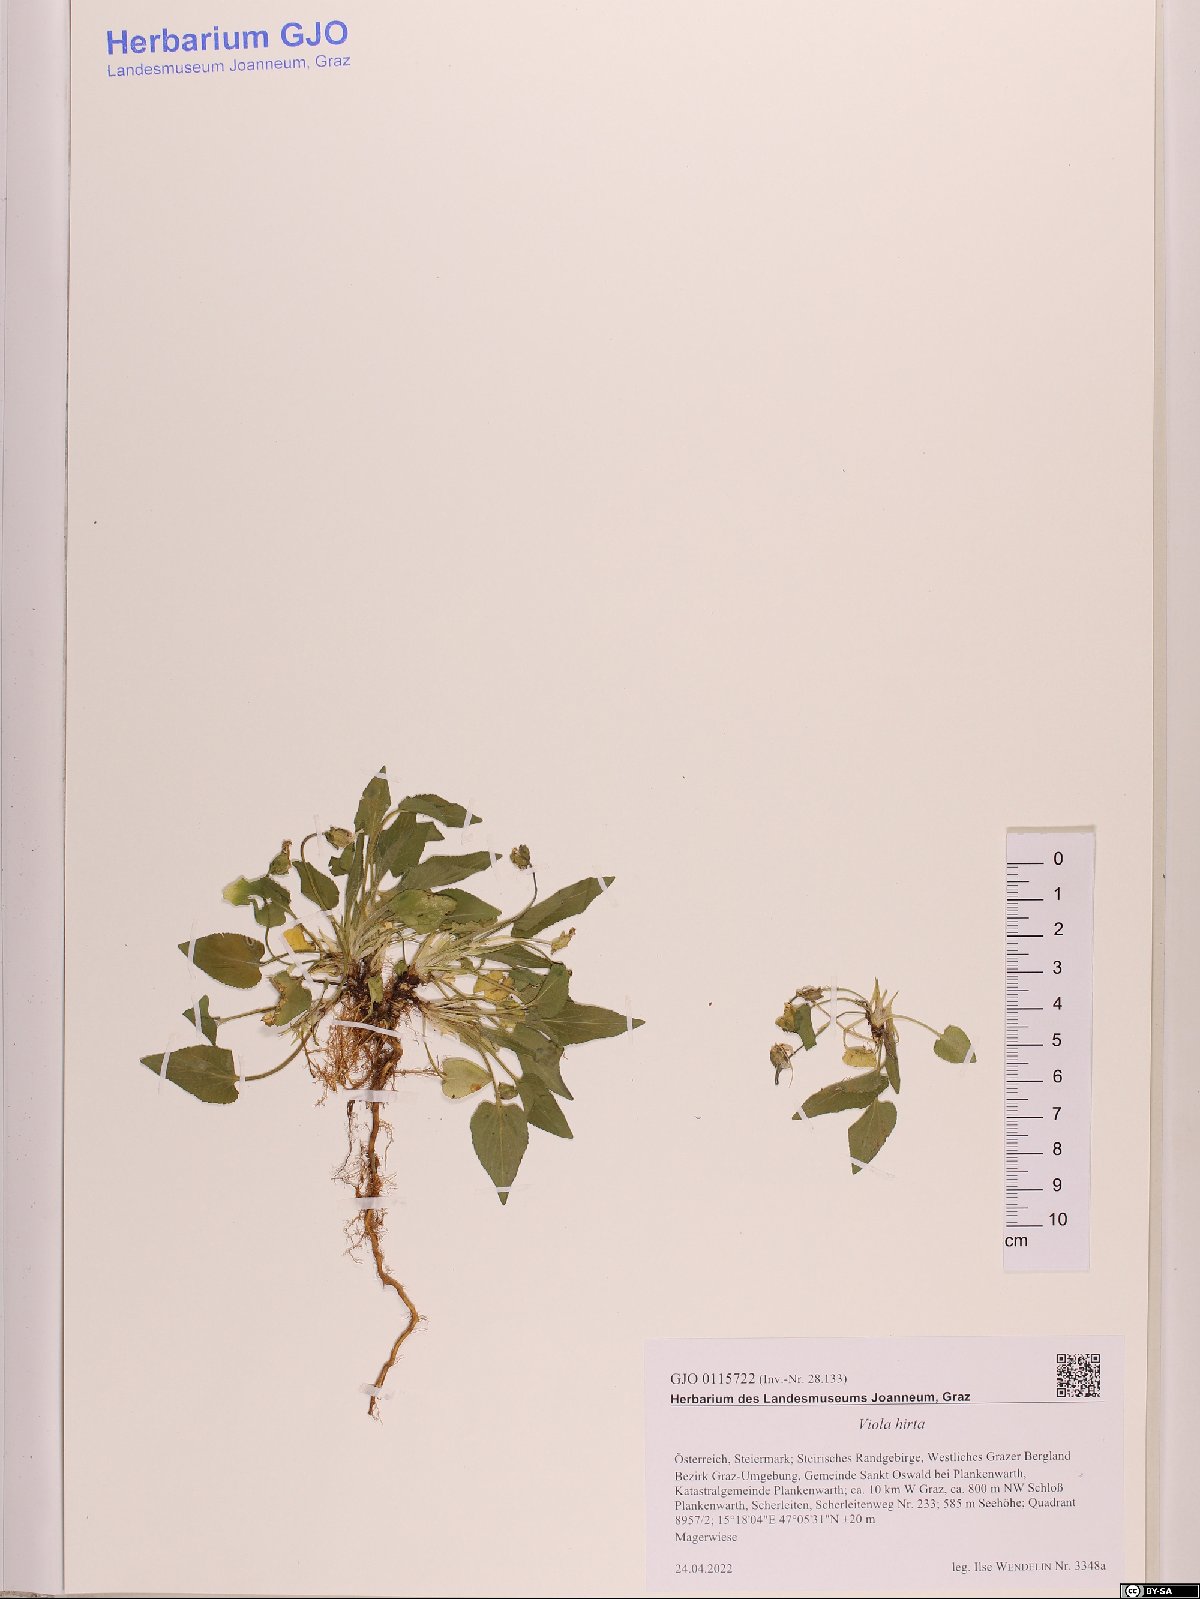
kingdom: Plantae
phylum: Tracheophyta
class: Magnoliopsida
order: Malpighiales
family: Violaceae
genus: Viola
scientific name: Viola hirta
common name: Hairy violet
